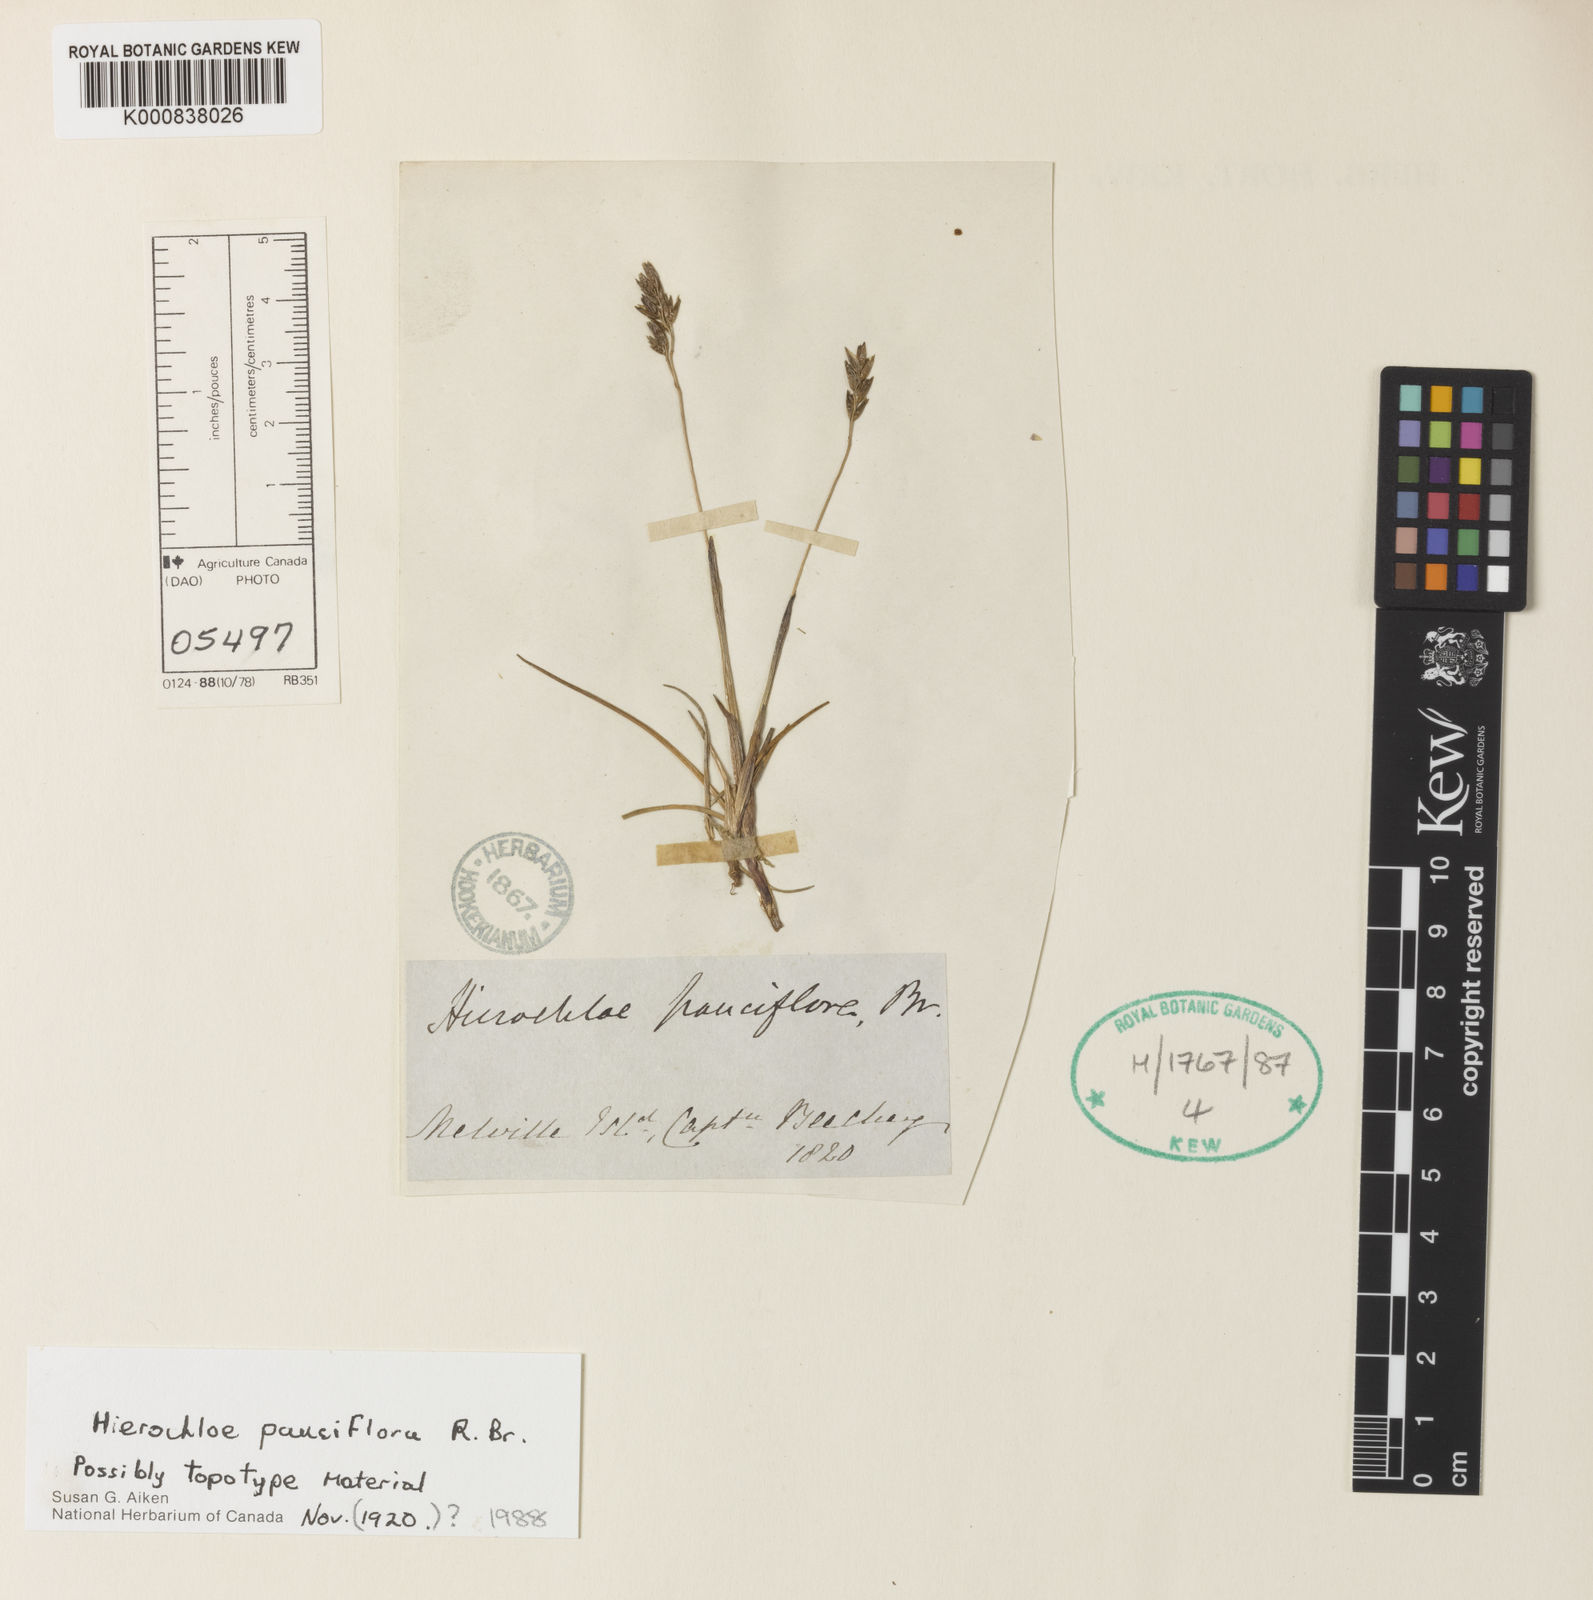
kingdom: Plantae
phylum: Tracheophyta
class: Liliopsida
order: Poales
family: Poaceae
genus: Anthoxanthum
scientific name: Anthoxanthum arcticum
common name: Arctic sweetgrass
